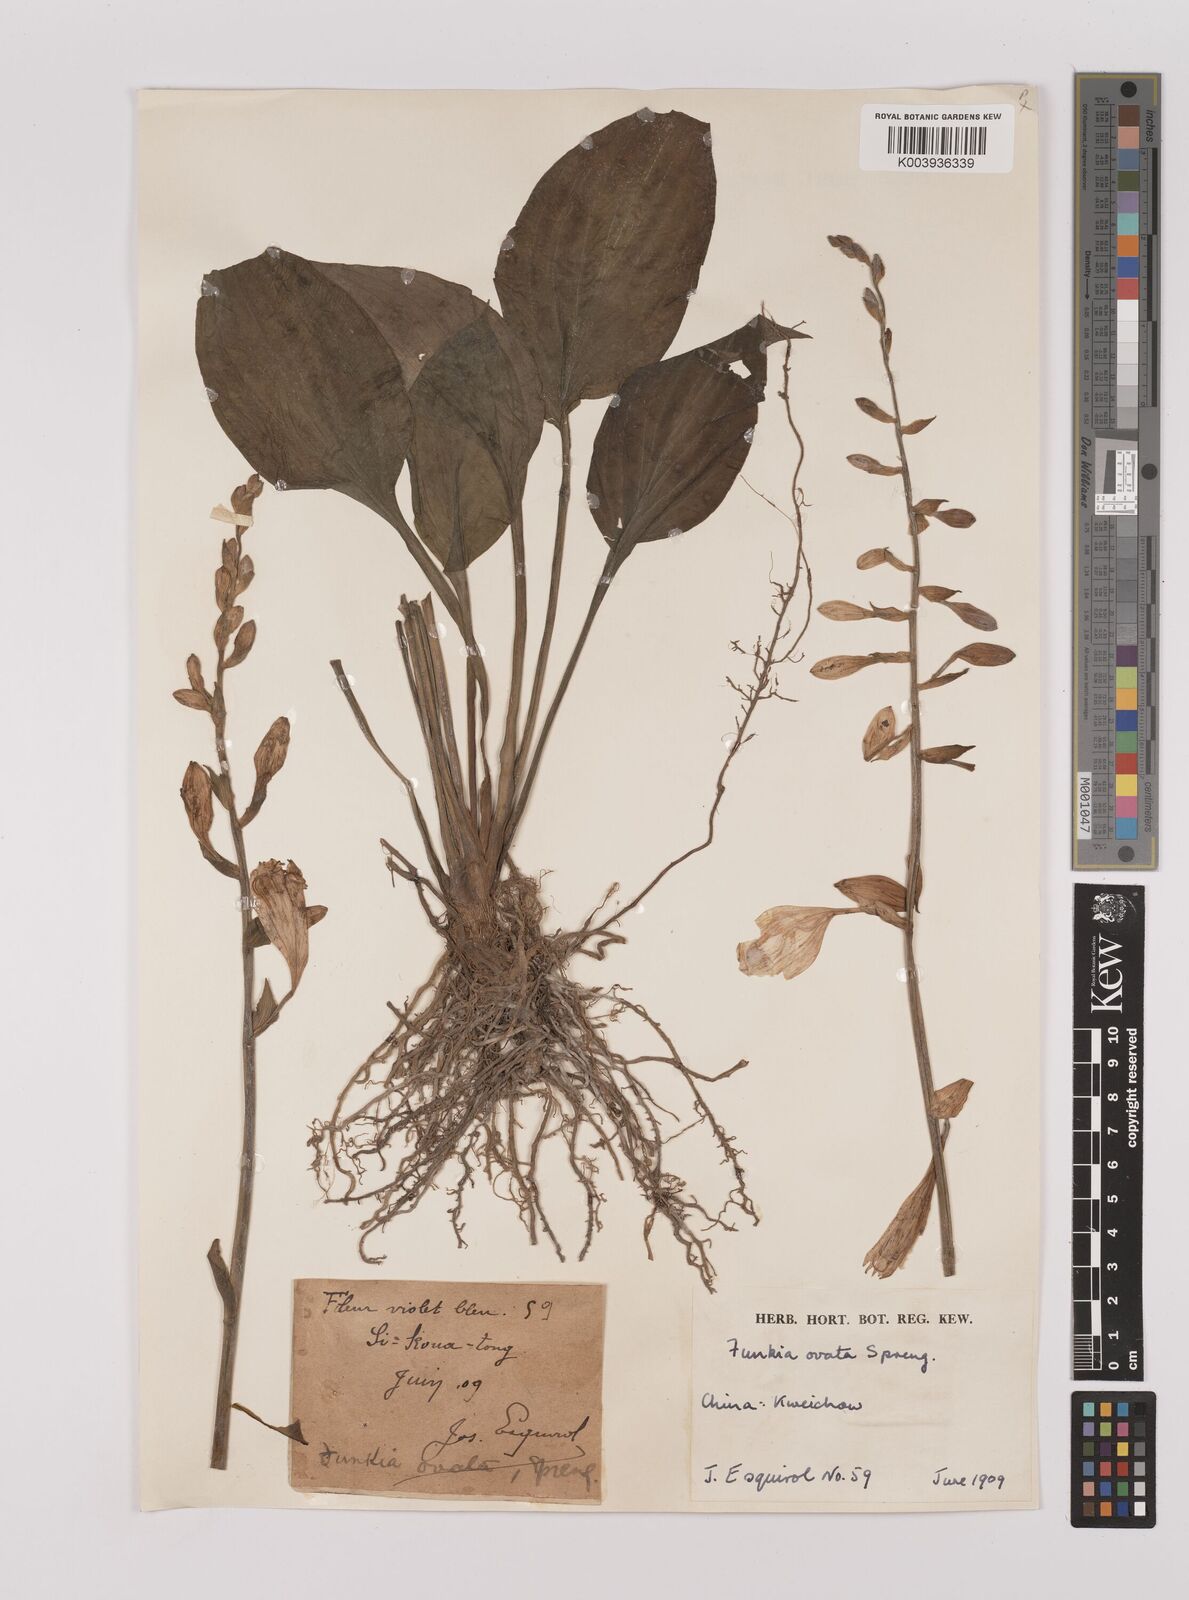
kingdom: Plantae
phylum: Tracheophyta
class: Liliopsida
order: Asparagales
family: Asparagaceae
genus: Hosta
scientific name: Hosta ventricosa
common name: Blue plantain-lily
